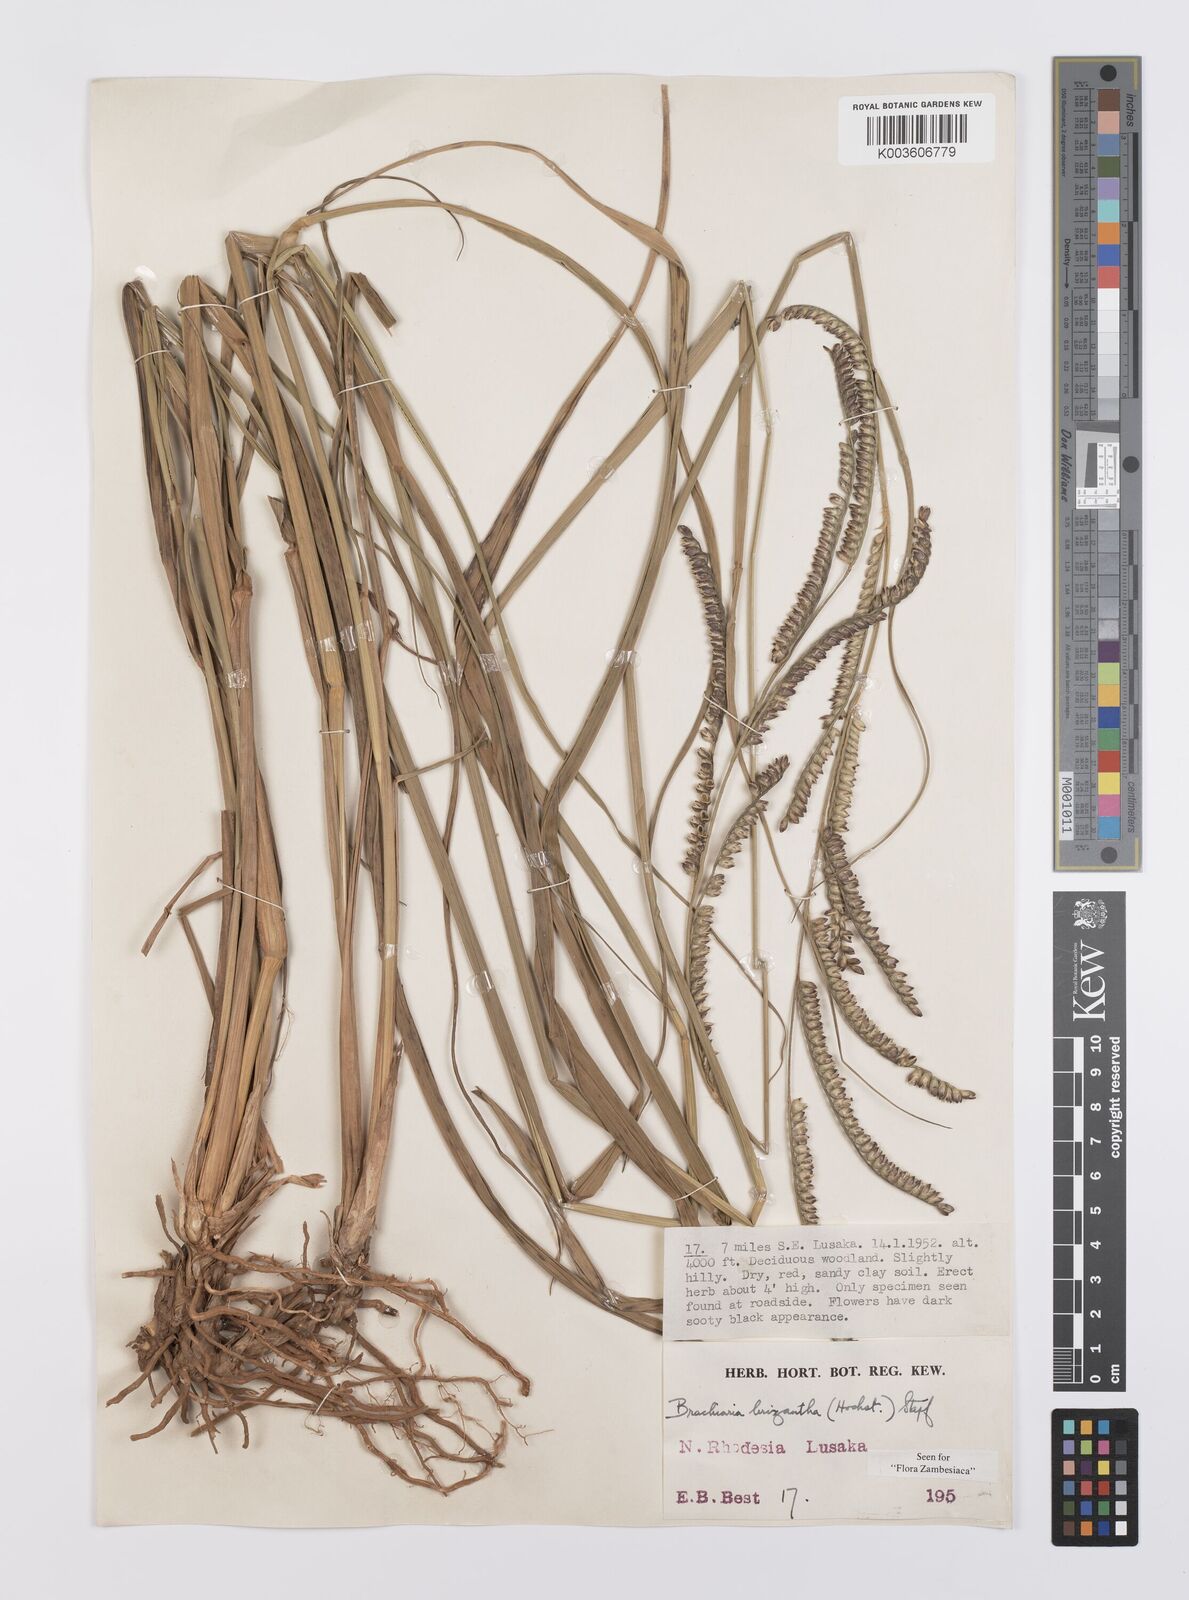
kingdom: Plantae
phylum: Tracheophyta
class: Liliopsida
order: Poales
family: Poaceae
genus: Urochloa
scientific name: Urochloa brizantha
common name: Palisade signalgrass
